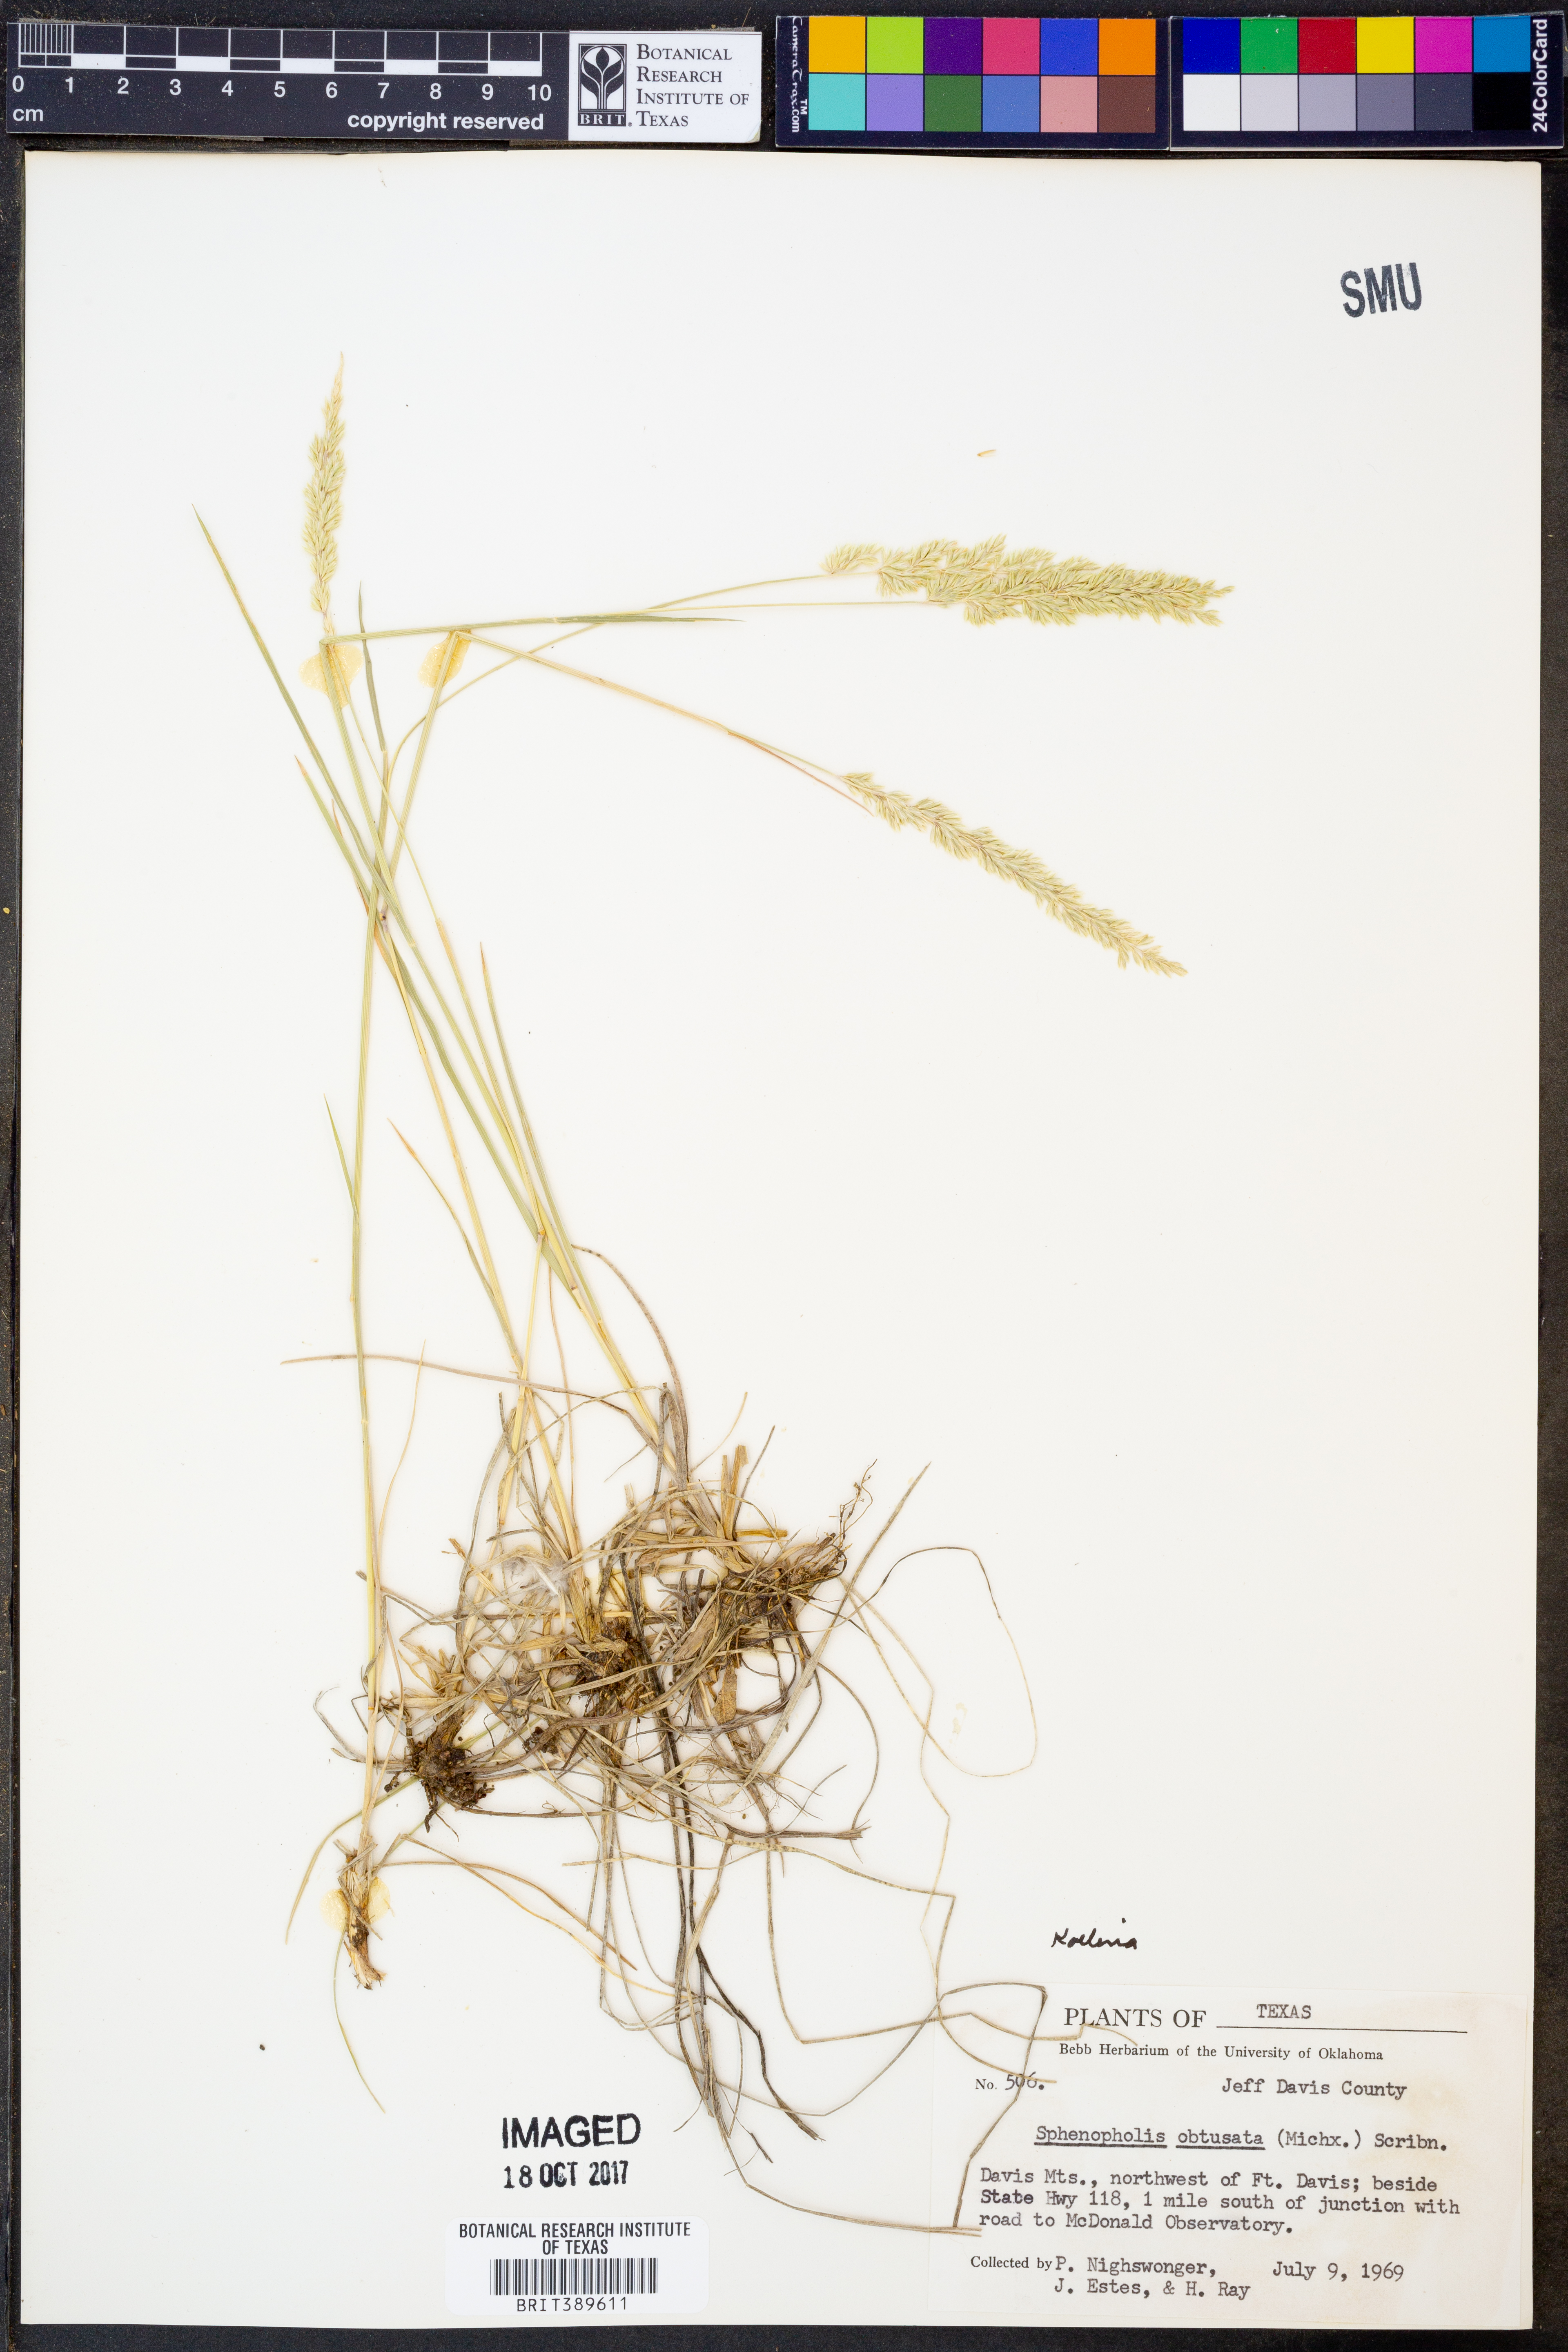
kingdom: Plantae
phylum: Tracheophyta
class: Liliopsida
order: Poales
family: Poaceae
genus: Sphenopholis
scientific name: Sphenopholis obtusata
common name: Prairie grass
